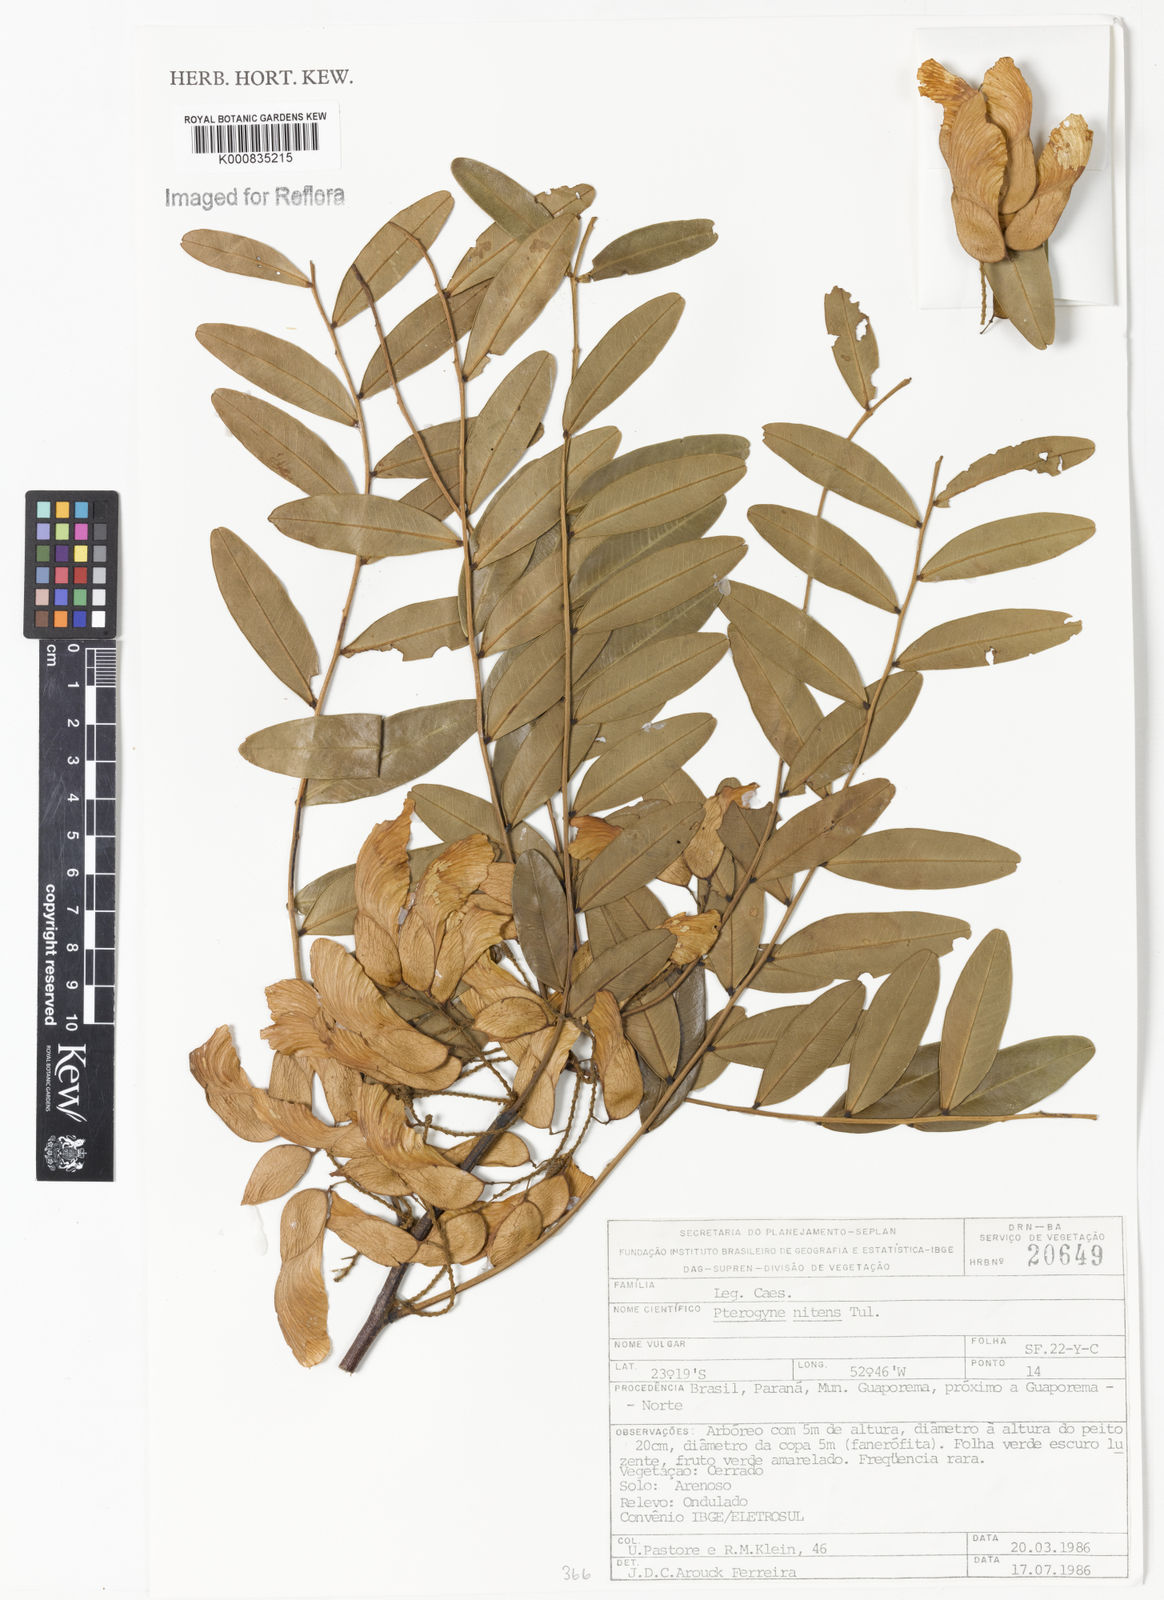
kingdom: Plantae
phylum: Tracheophyta
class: Magnoliopsida
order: Fabales
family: Fabaceae
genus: Pterogyne
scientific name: Pterogyne nitens
